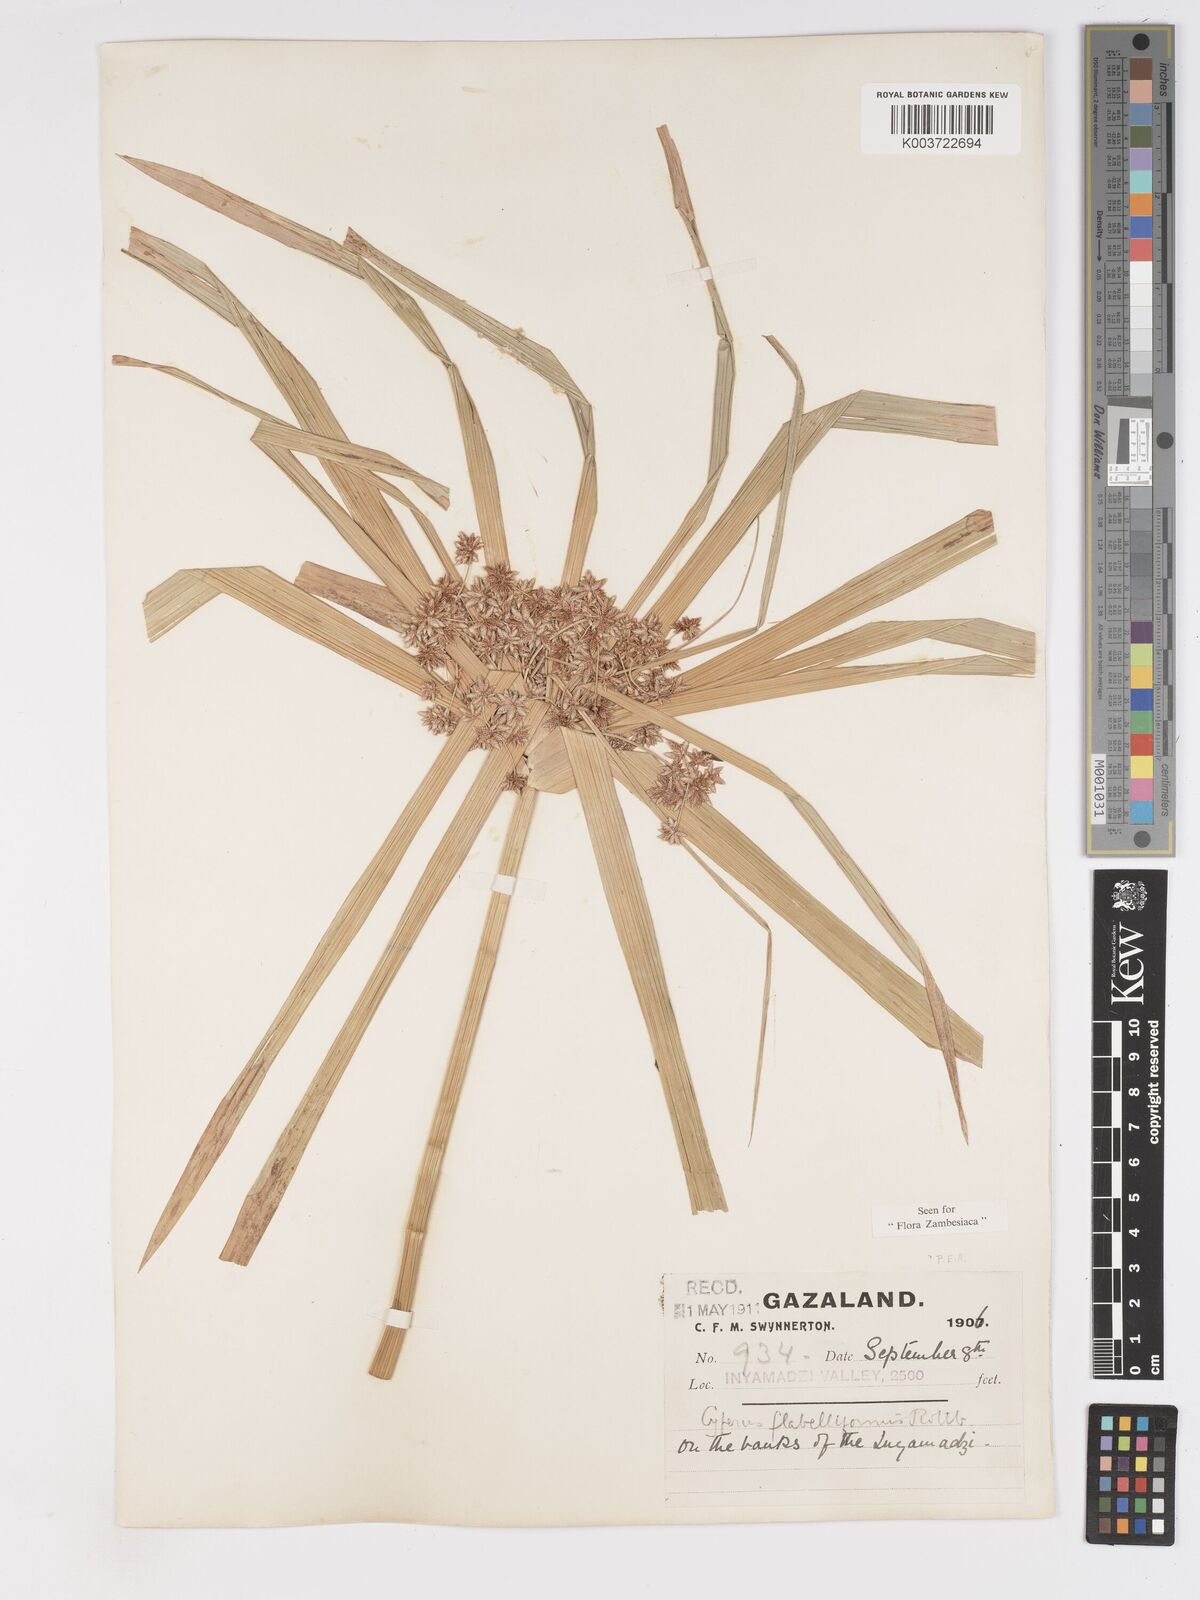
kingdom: Plantae
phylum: Tracheophyta
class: Liliopsida
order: Poales
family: Cyperaceae
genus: Cyperus
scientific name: Cyperus alternifolius
